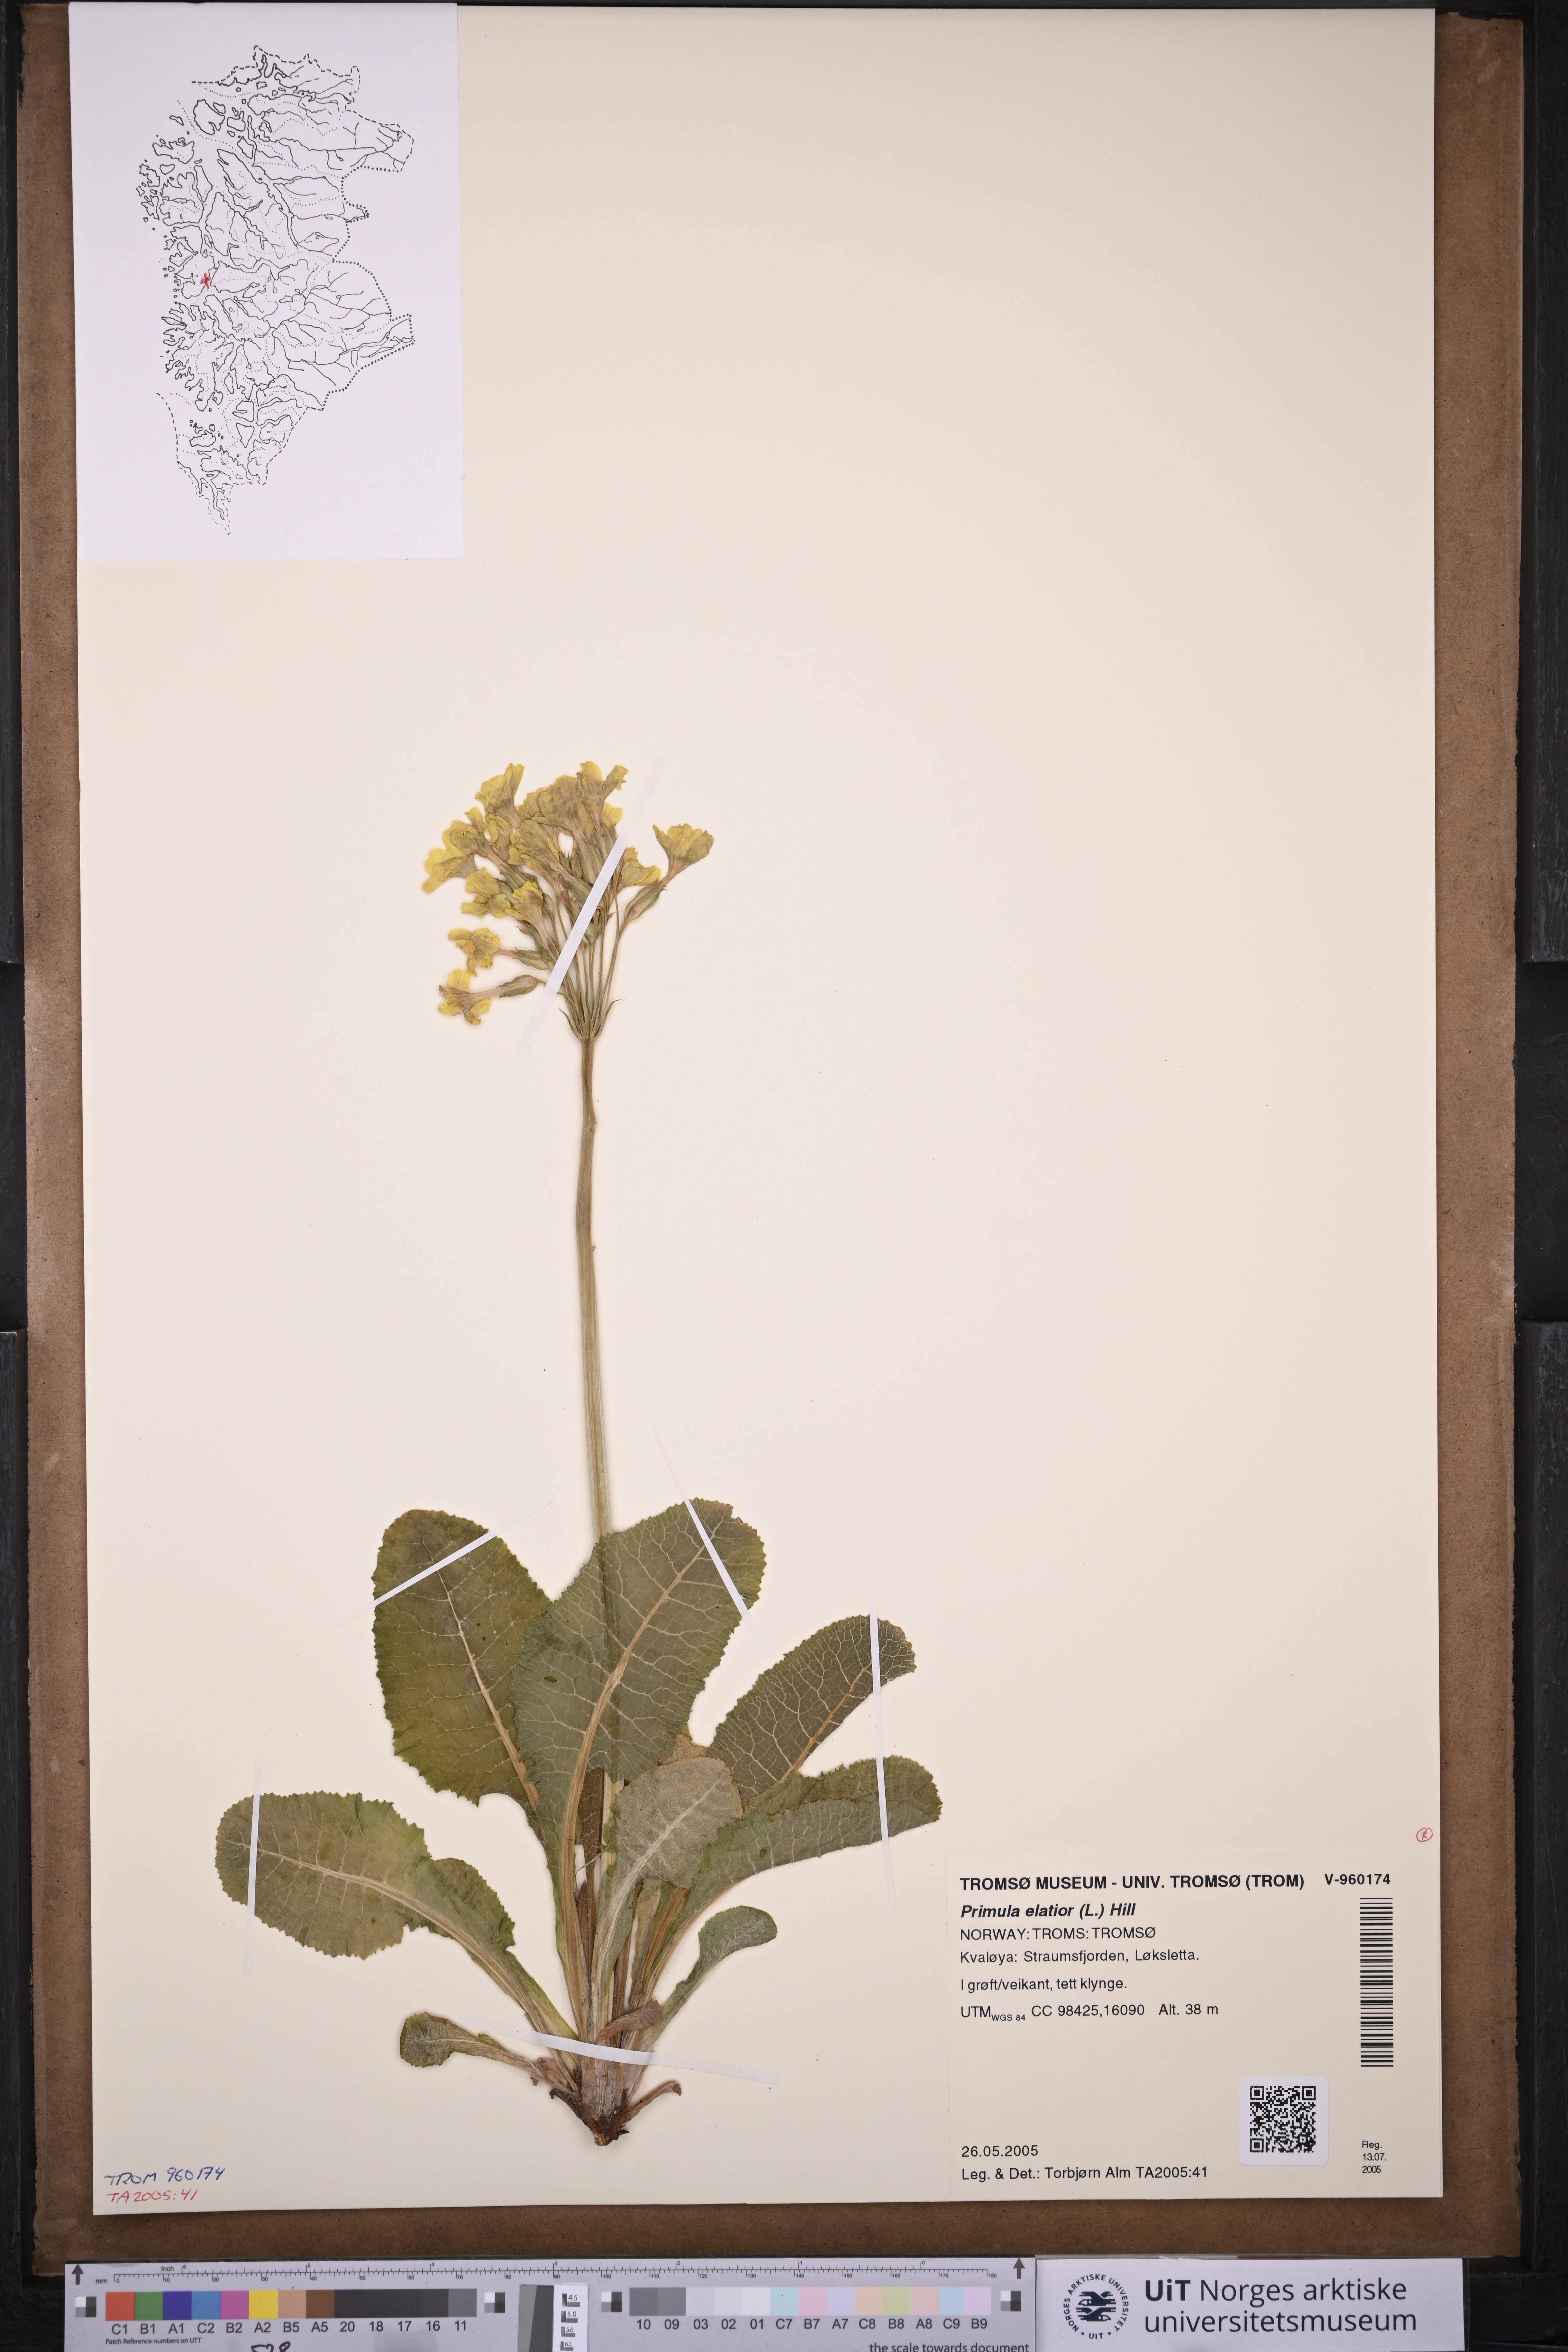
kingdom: Plantae
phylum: Tracheophyta
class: Magnoliopsida
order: Ericales
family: Primulaceae
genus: Primula
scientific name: Primula elatior
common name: Oxlip
